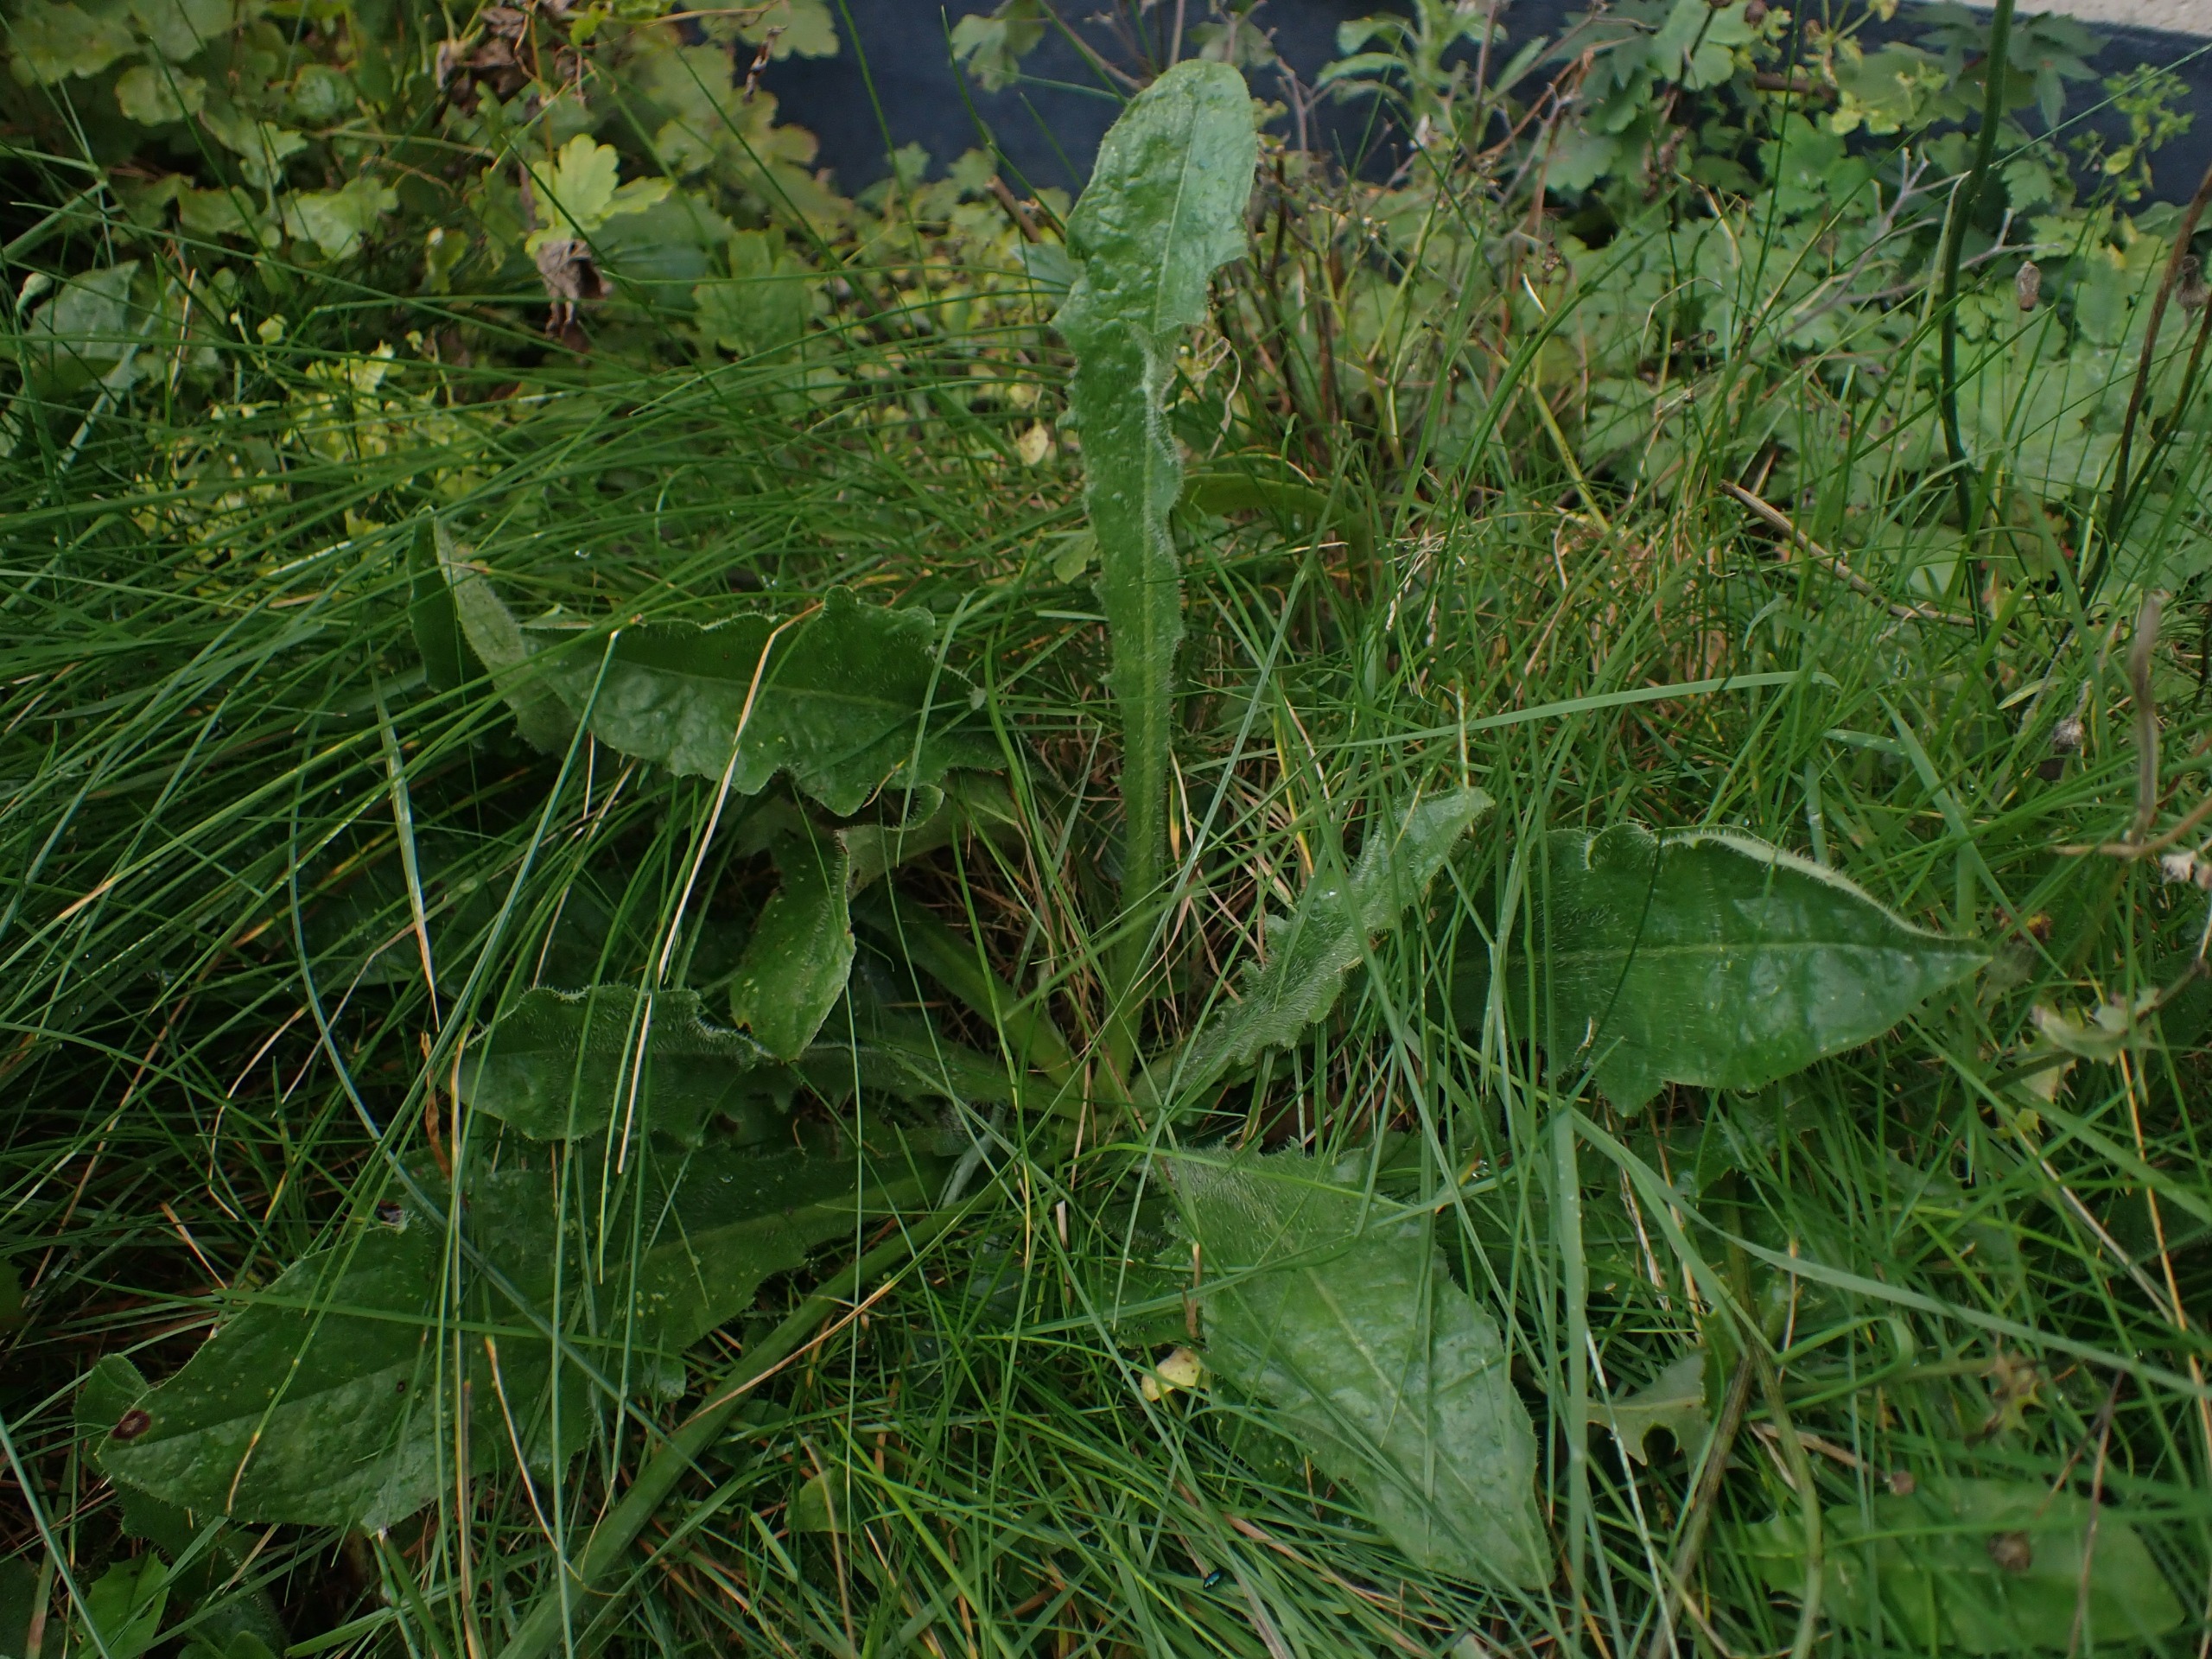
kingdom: Plantae
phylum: Tracheophyta
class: Magnoliopsida
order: Asterales
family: Asteraceae
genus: Hypochaeris
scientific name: Hypochaeris radicata
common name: Almindelig kongepen
